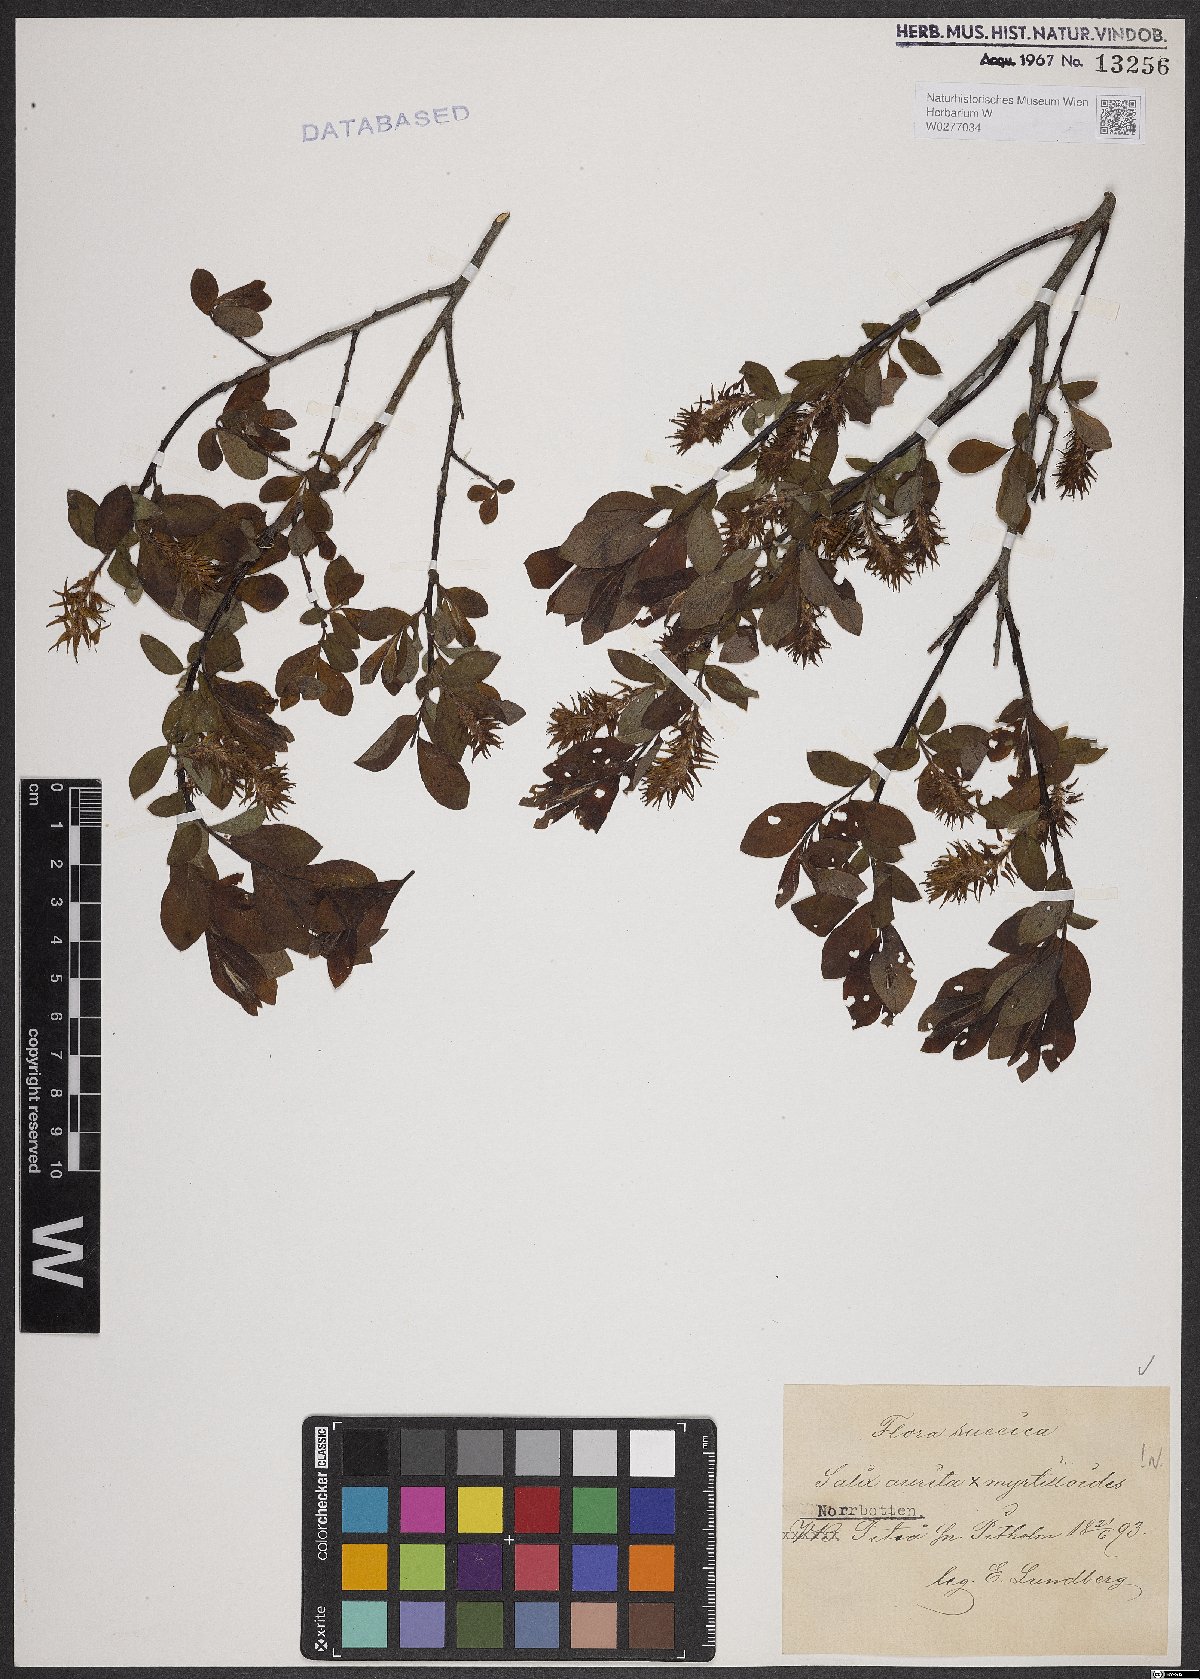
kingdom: Plantae
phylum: Tracheophyta
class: Magnoliopsida
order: Malpighiales
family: Salicaceae
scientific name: Salicaceae
